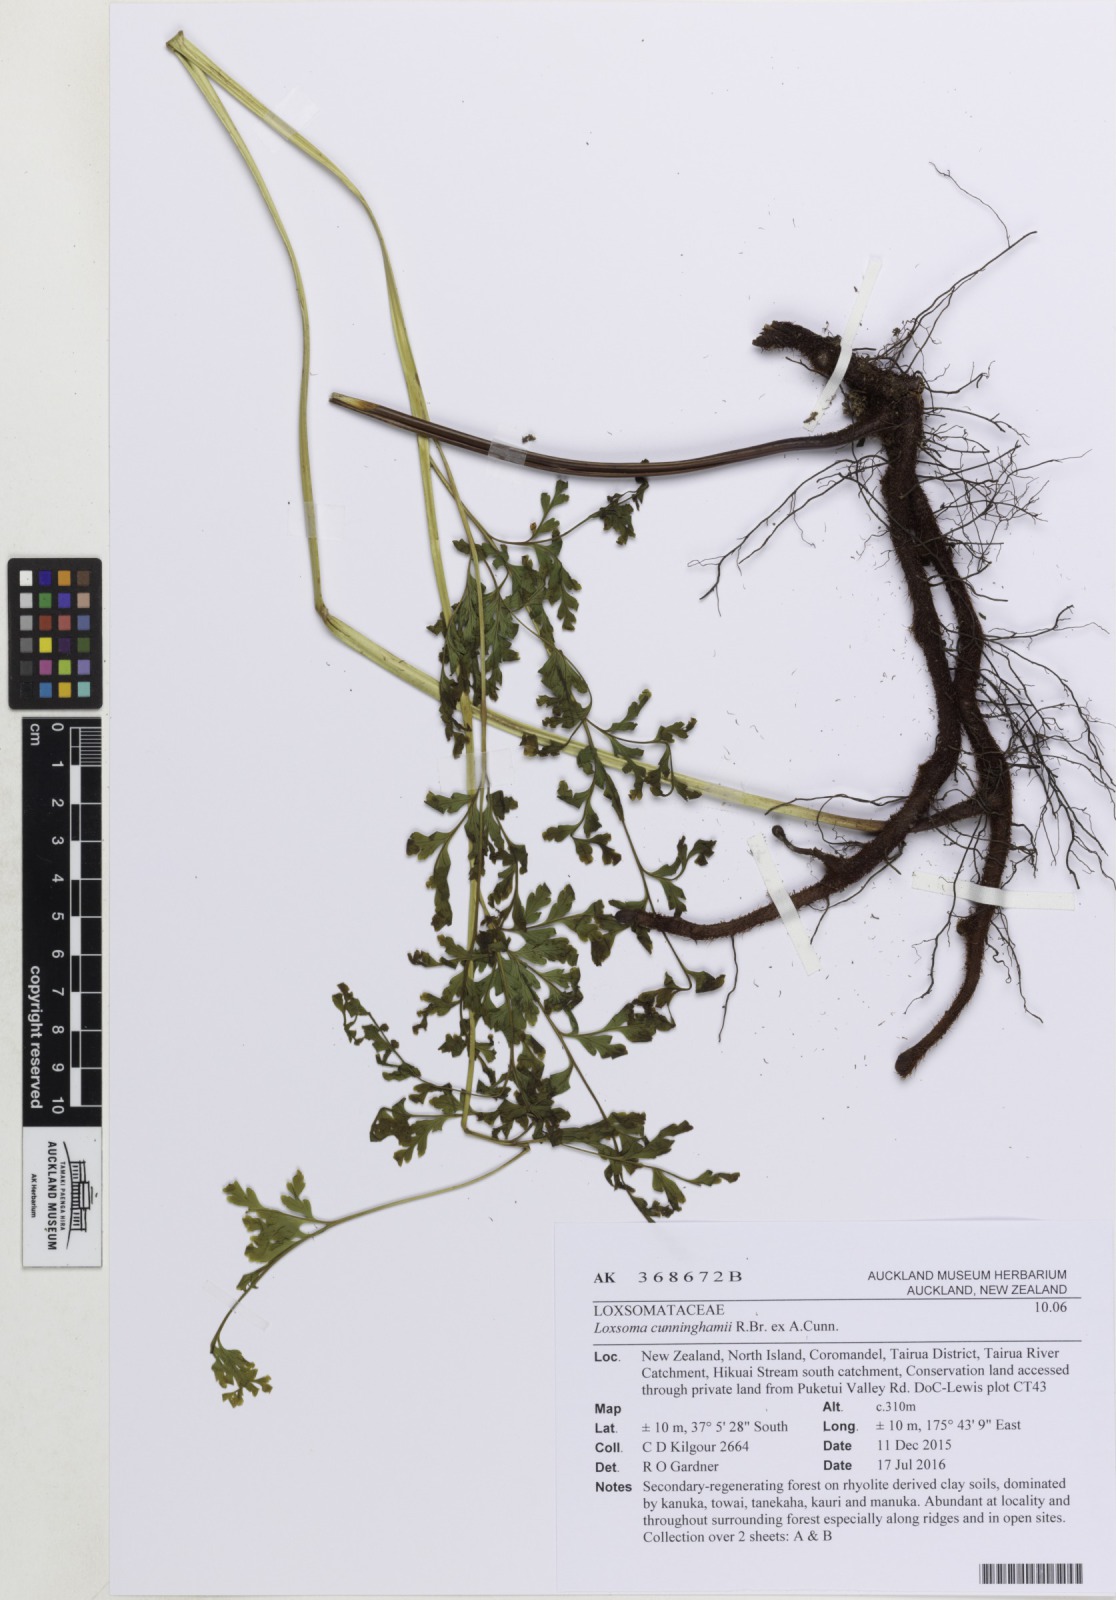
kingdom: Plantae
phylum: Tracheophyta
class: Polypodiopsida
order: Cyatheales
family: Loxsomataceae
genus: Loxsoma
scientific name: Loxsoma cunninghamii
